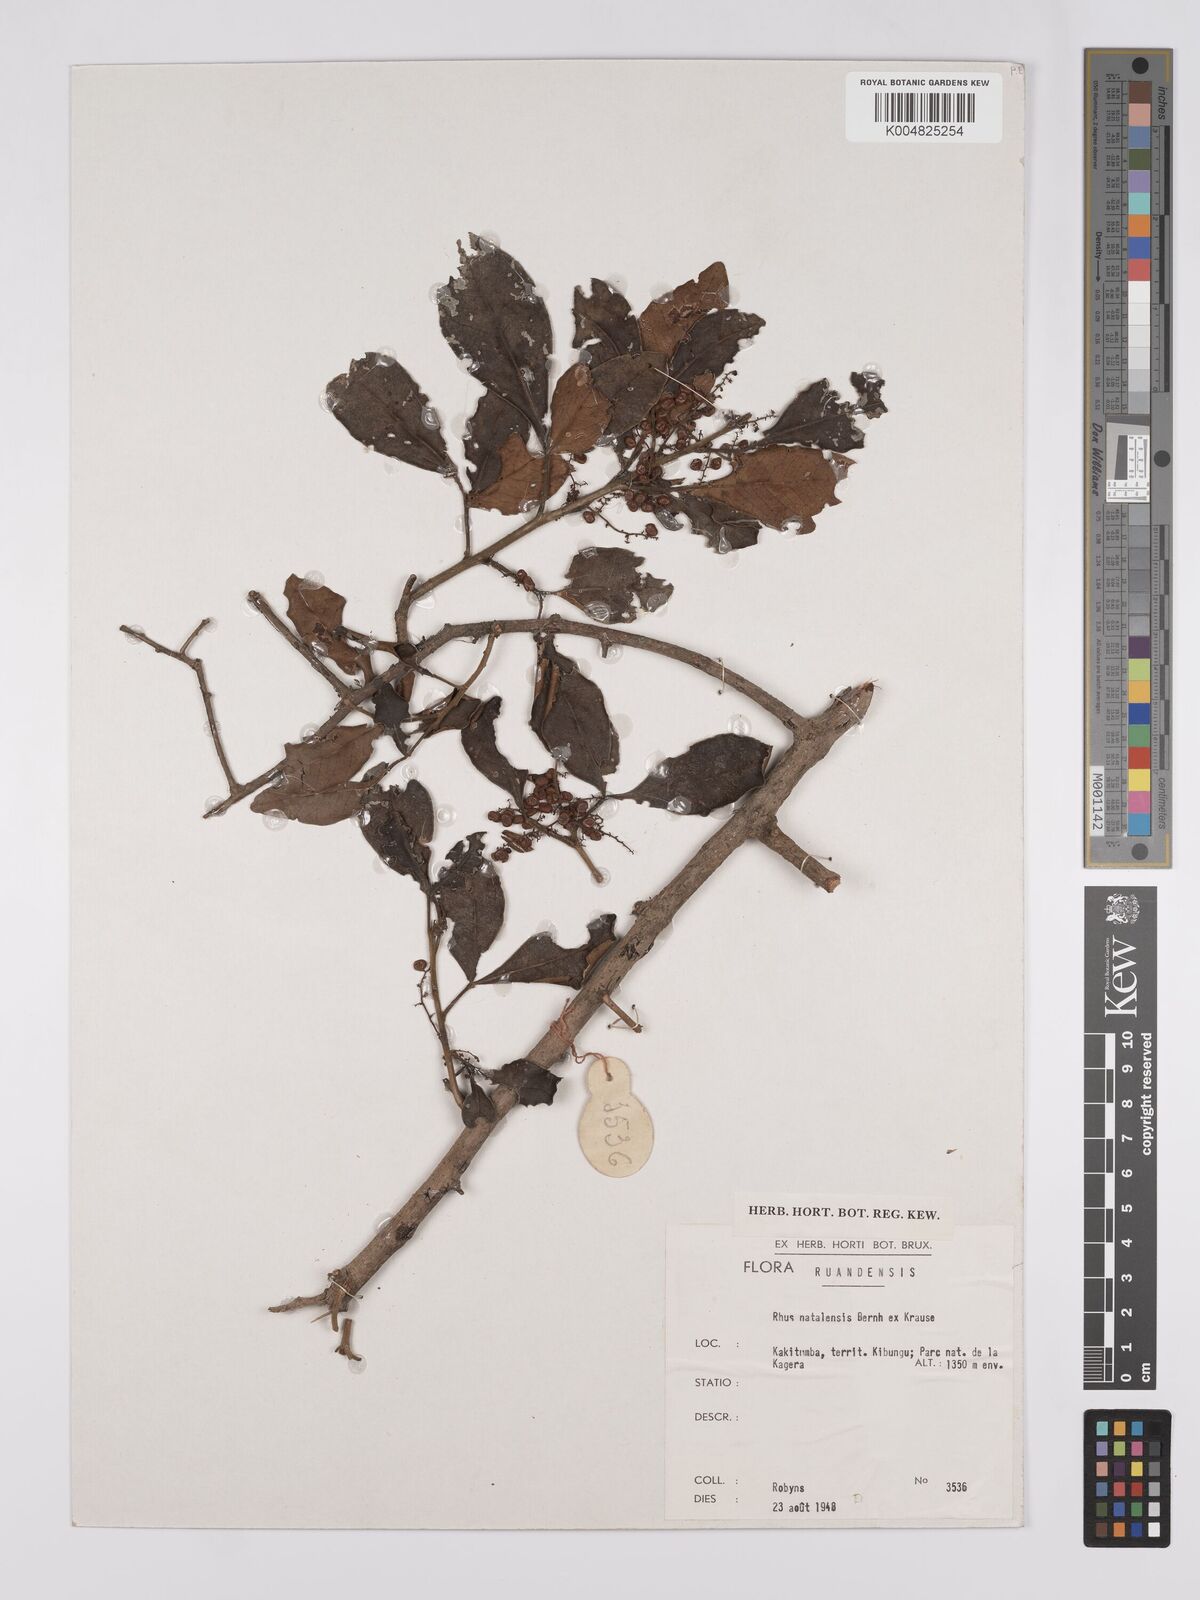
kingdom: Plantae
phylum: Tracheophyta
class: Magnoliopsida
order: Sapindales
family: Anacardiaceae
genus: Searsia
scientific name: Searsia natalensis
